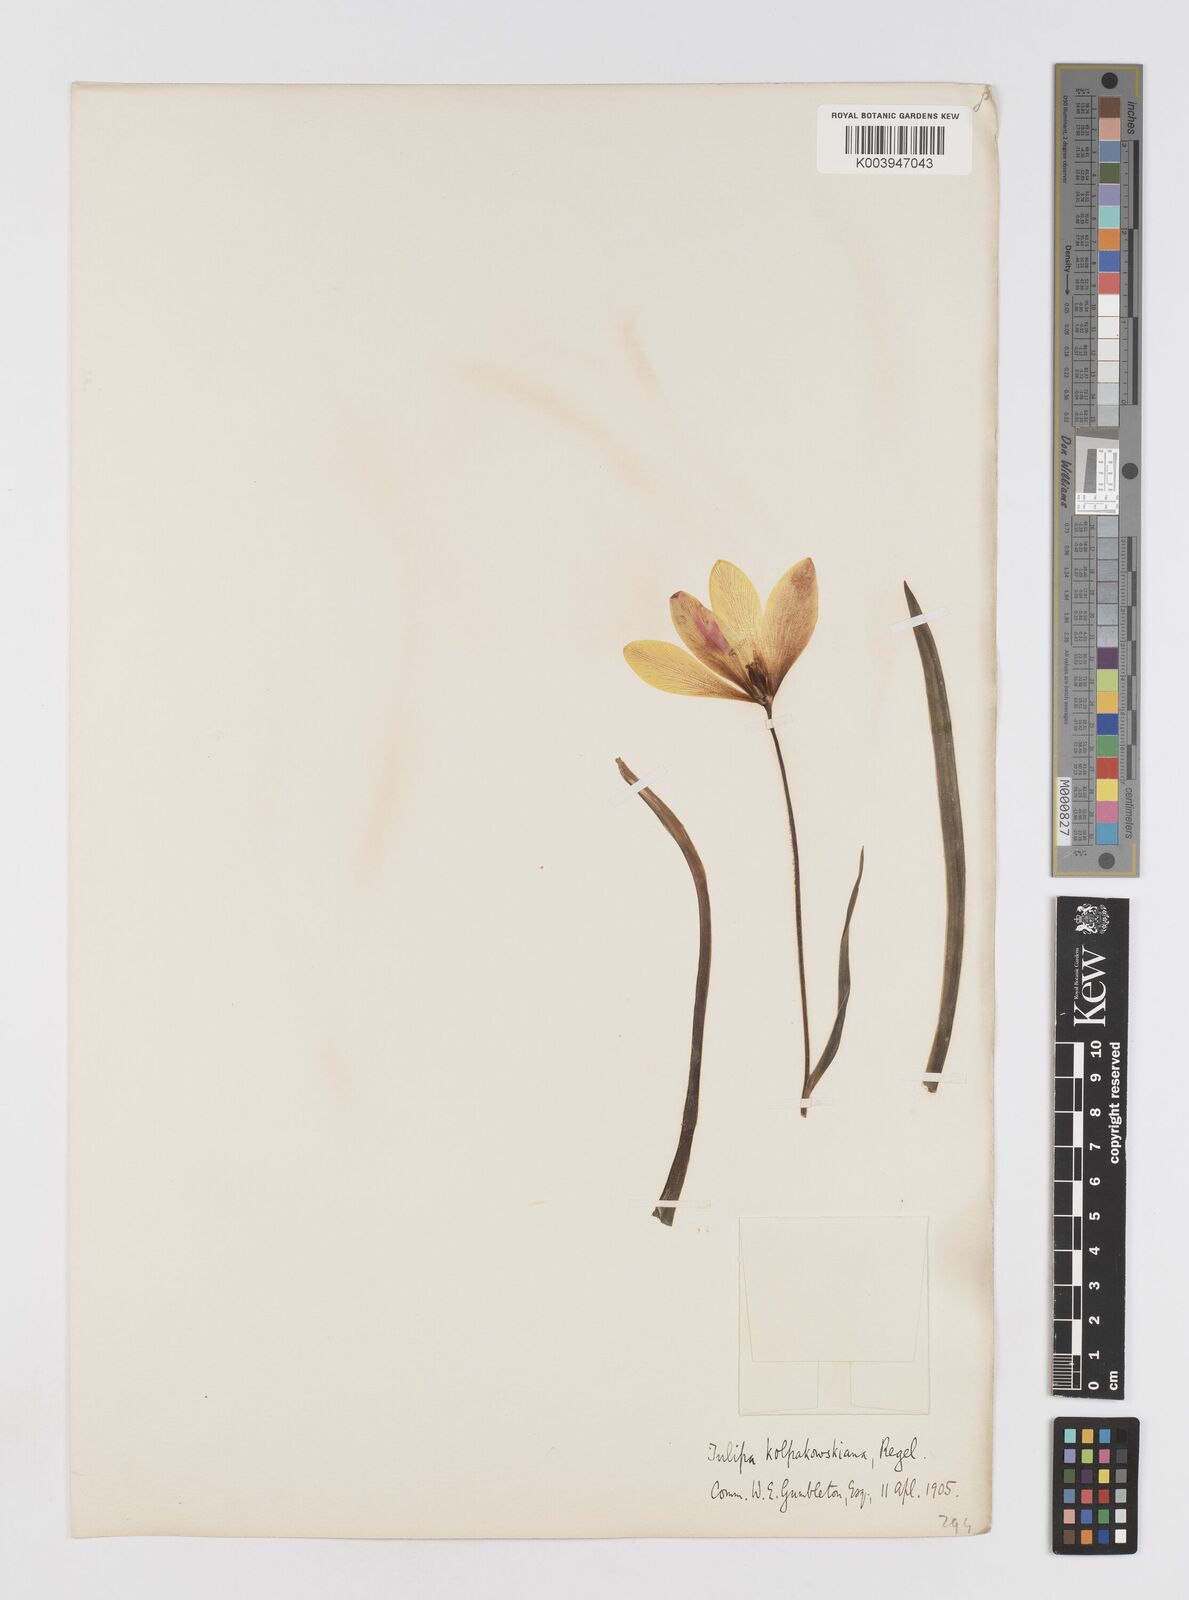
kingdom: Plantae
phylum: Tracheophyta
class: Liliopsida
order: Liliales
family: Liliaceae
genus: Tulipa
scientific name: Tulipa clusiana
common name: Lady tulip
